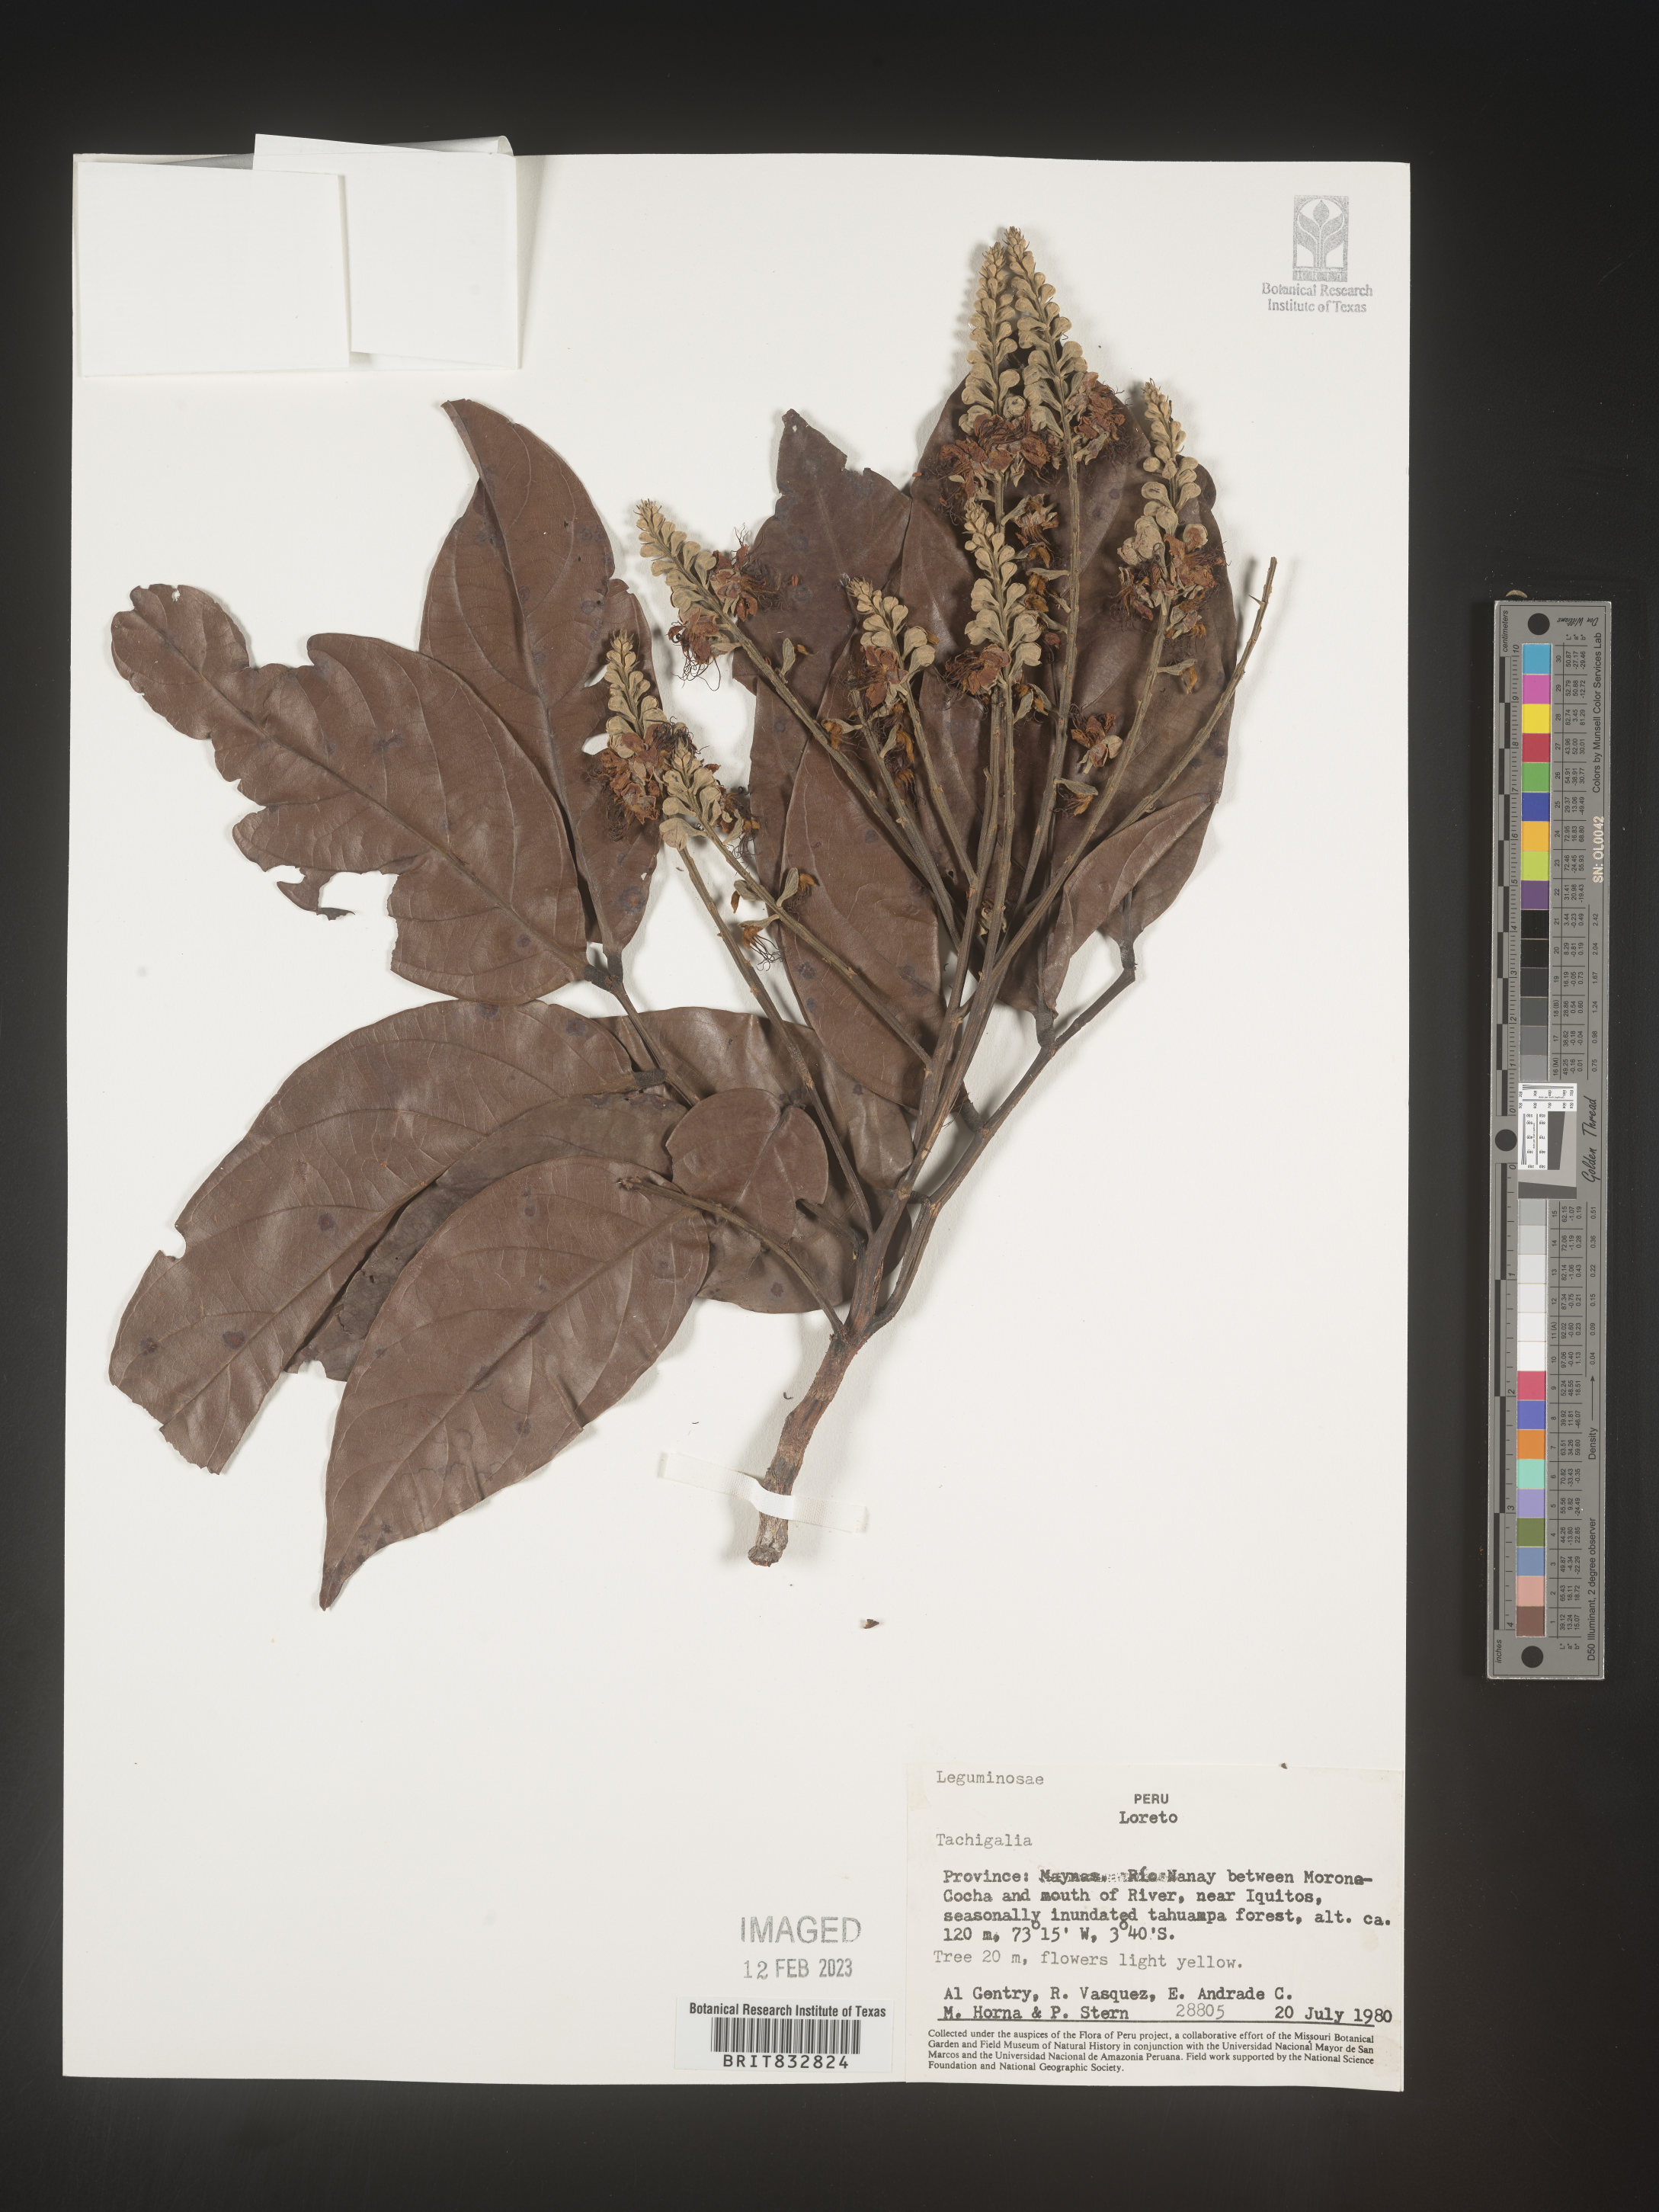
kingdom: Plantae
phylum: Tracheophyta
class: Magnoliopsida
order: Fabales
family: Fabaceae
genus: Tachigali
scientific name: Tachigali
